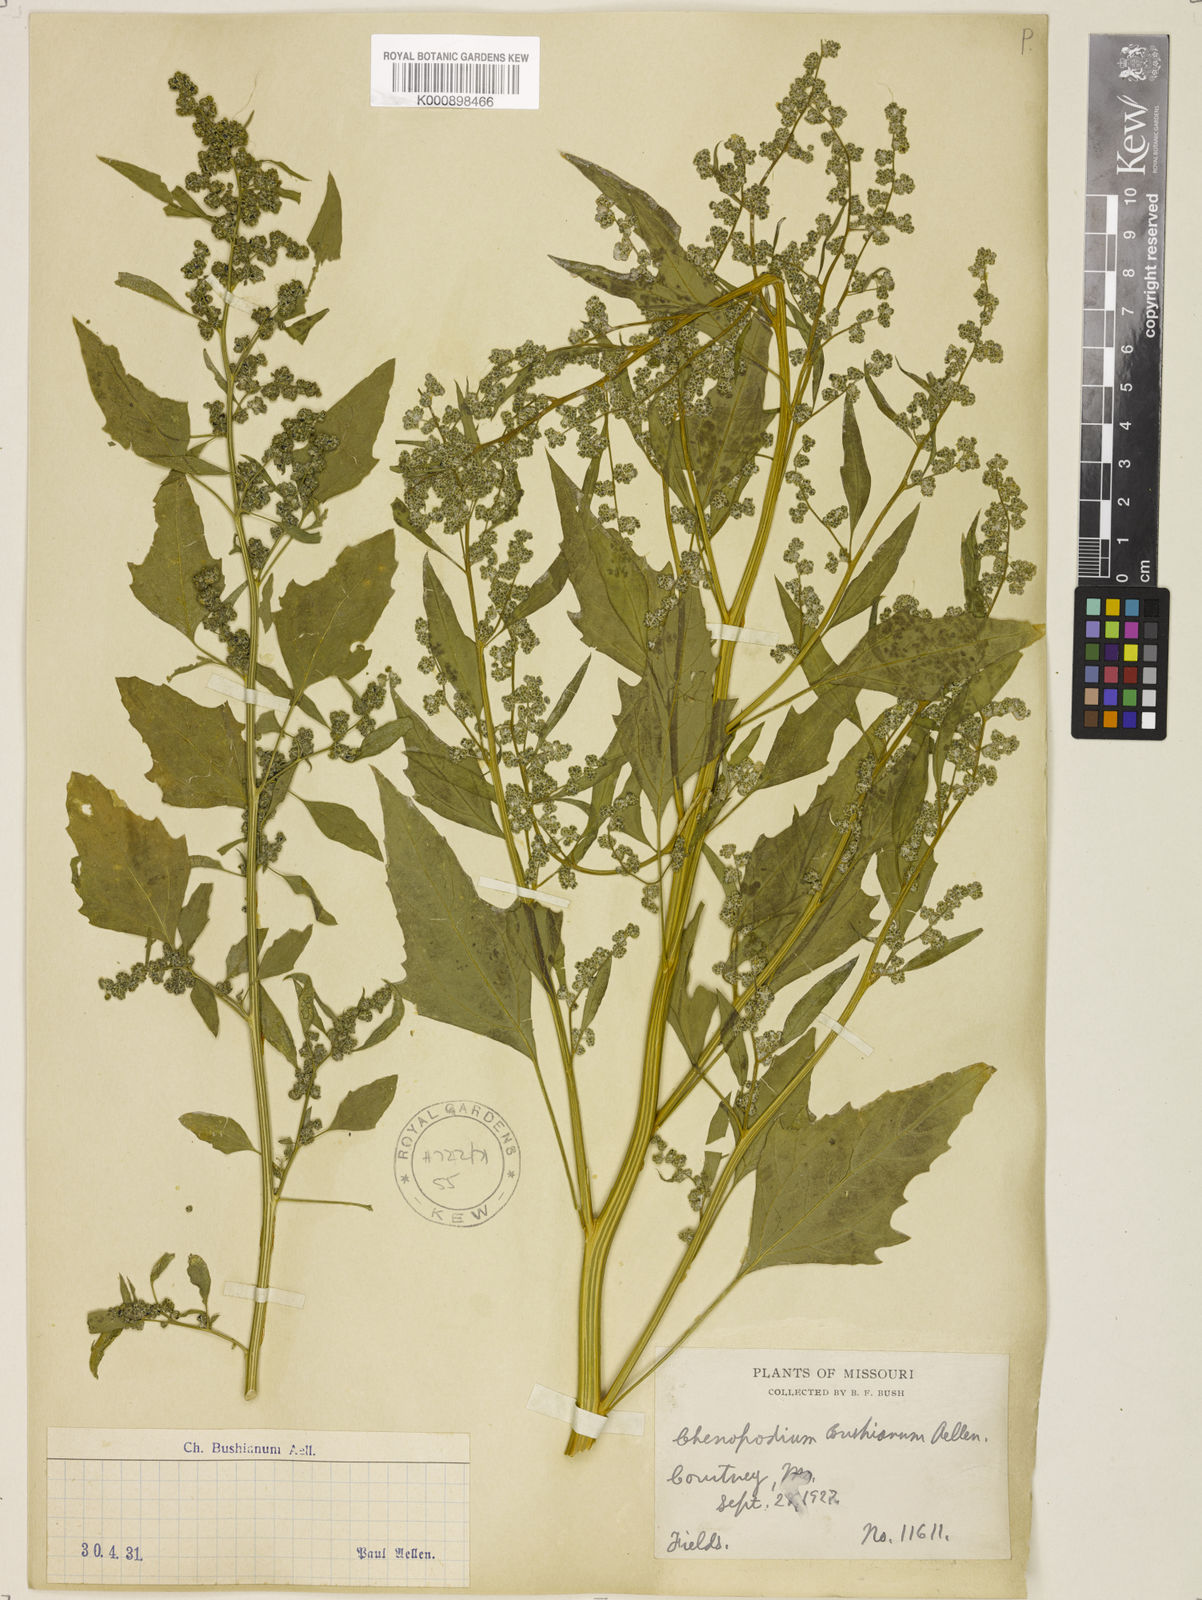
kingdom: Plantae
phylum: Tracheophyta
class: Magnoliopsida
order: Caryophyllales
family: Amaranthaceae
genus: Chenopodium
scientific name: Chenopodium berlandieri
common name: Pit-seed goosefoot
